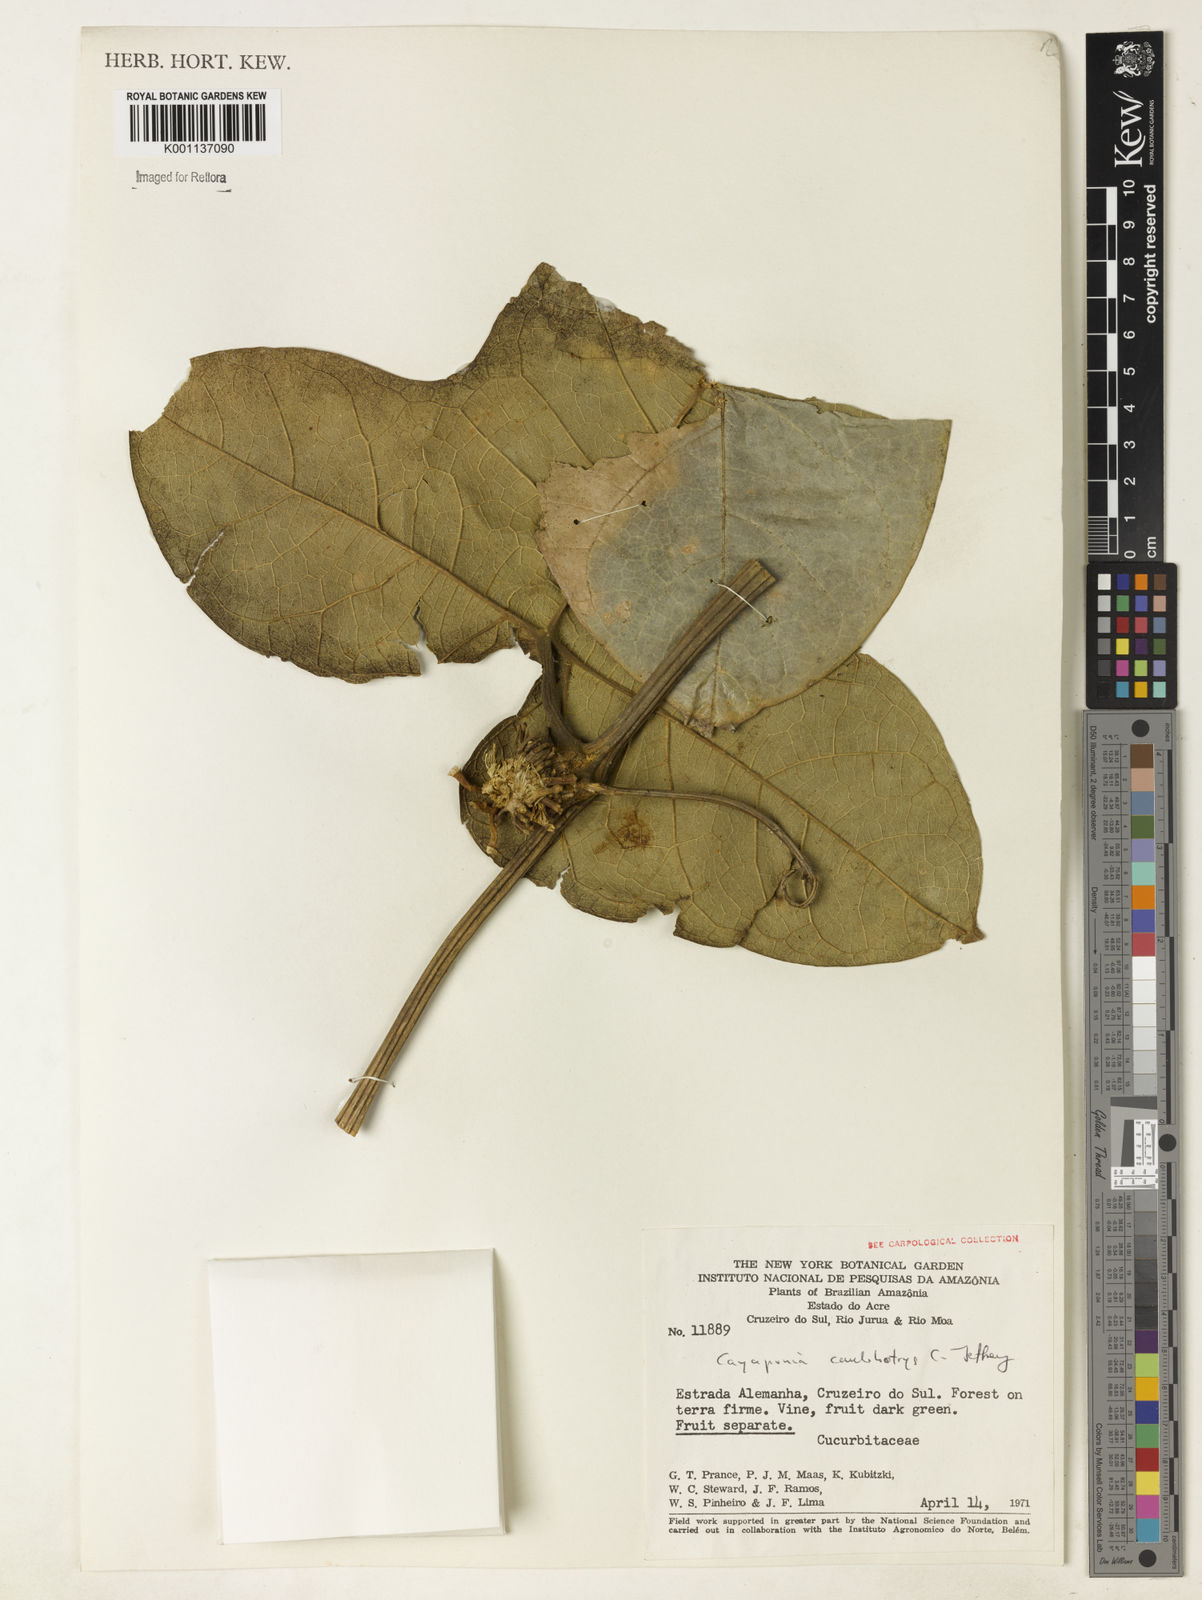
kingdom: Plantae
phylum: Tracheophyta
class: Magnoliopsida
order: Cucurbitales
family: Cucurbitaceae
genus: Cayaponia
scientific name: Cayaponia caulobotrys
